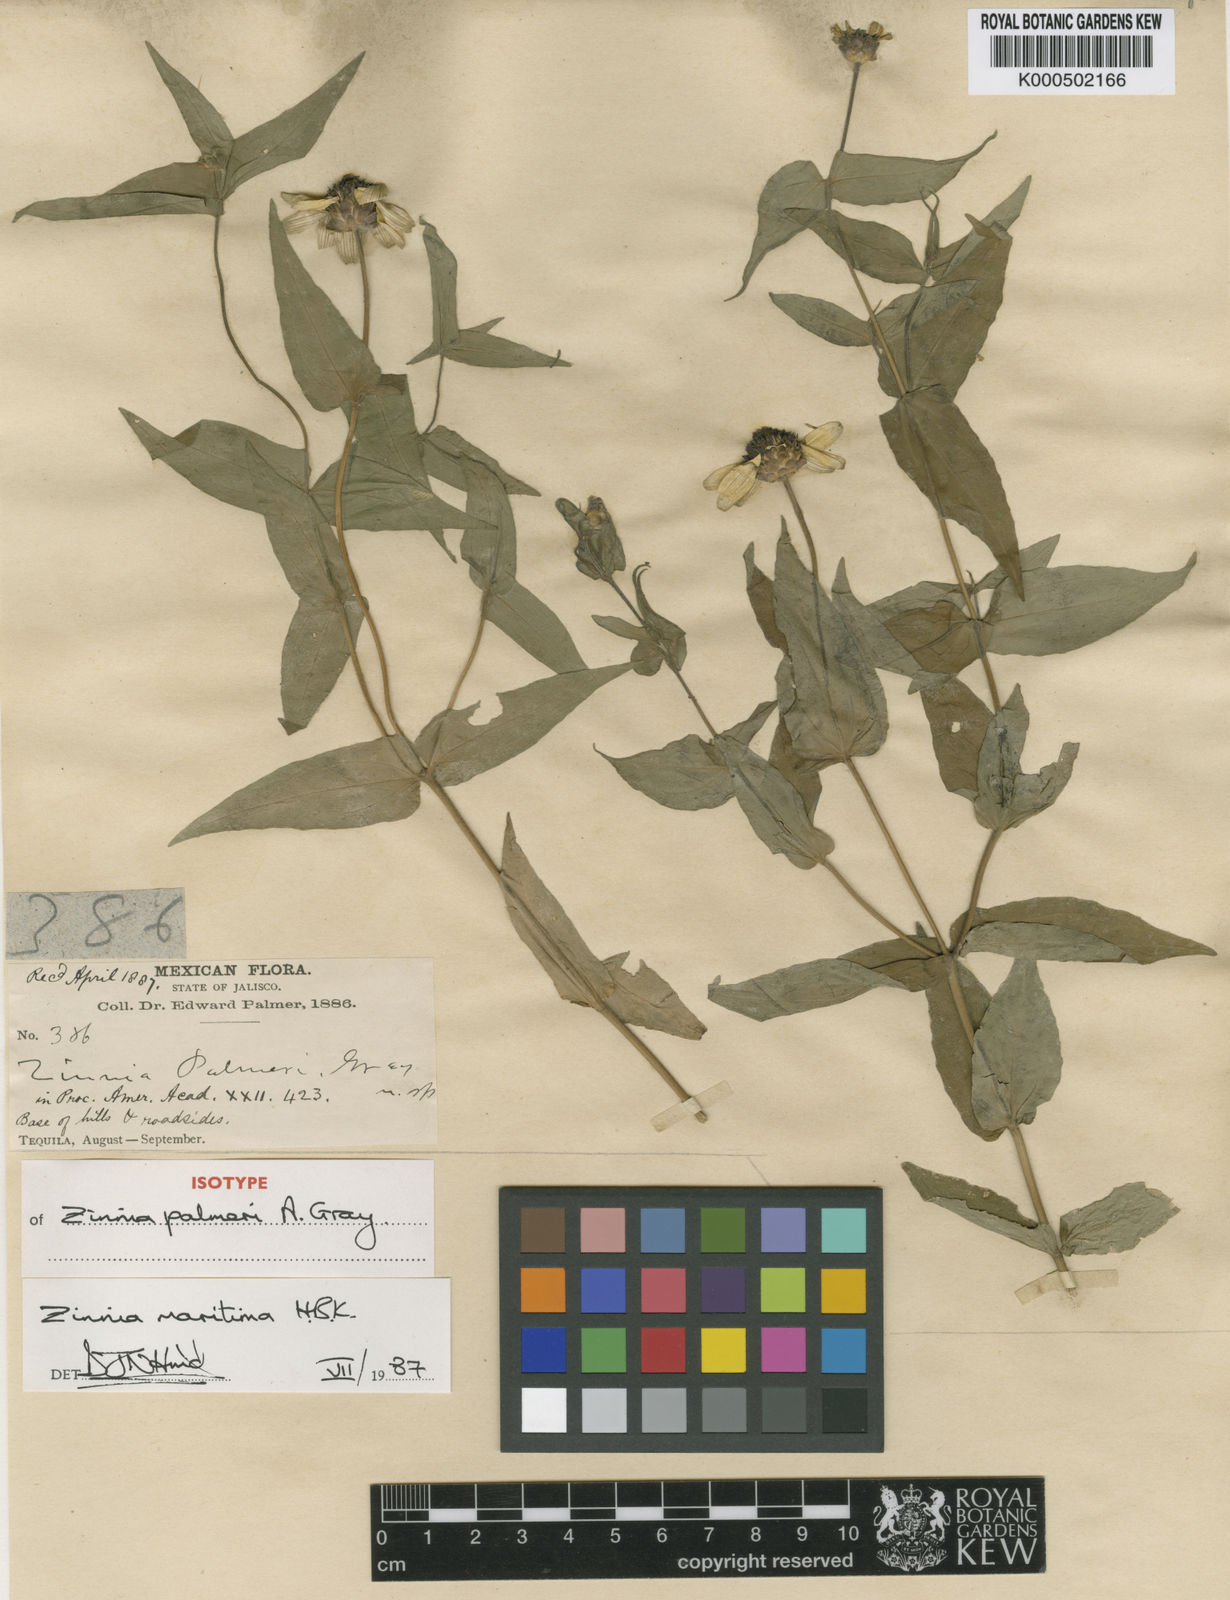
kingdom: Plantae
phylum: Tracheophyta
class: Magnoliopsida
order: Asterales
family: Asteraceae
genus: Zinnia
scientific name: Zinnia maritima
